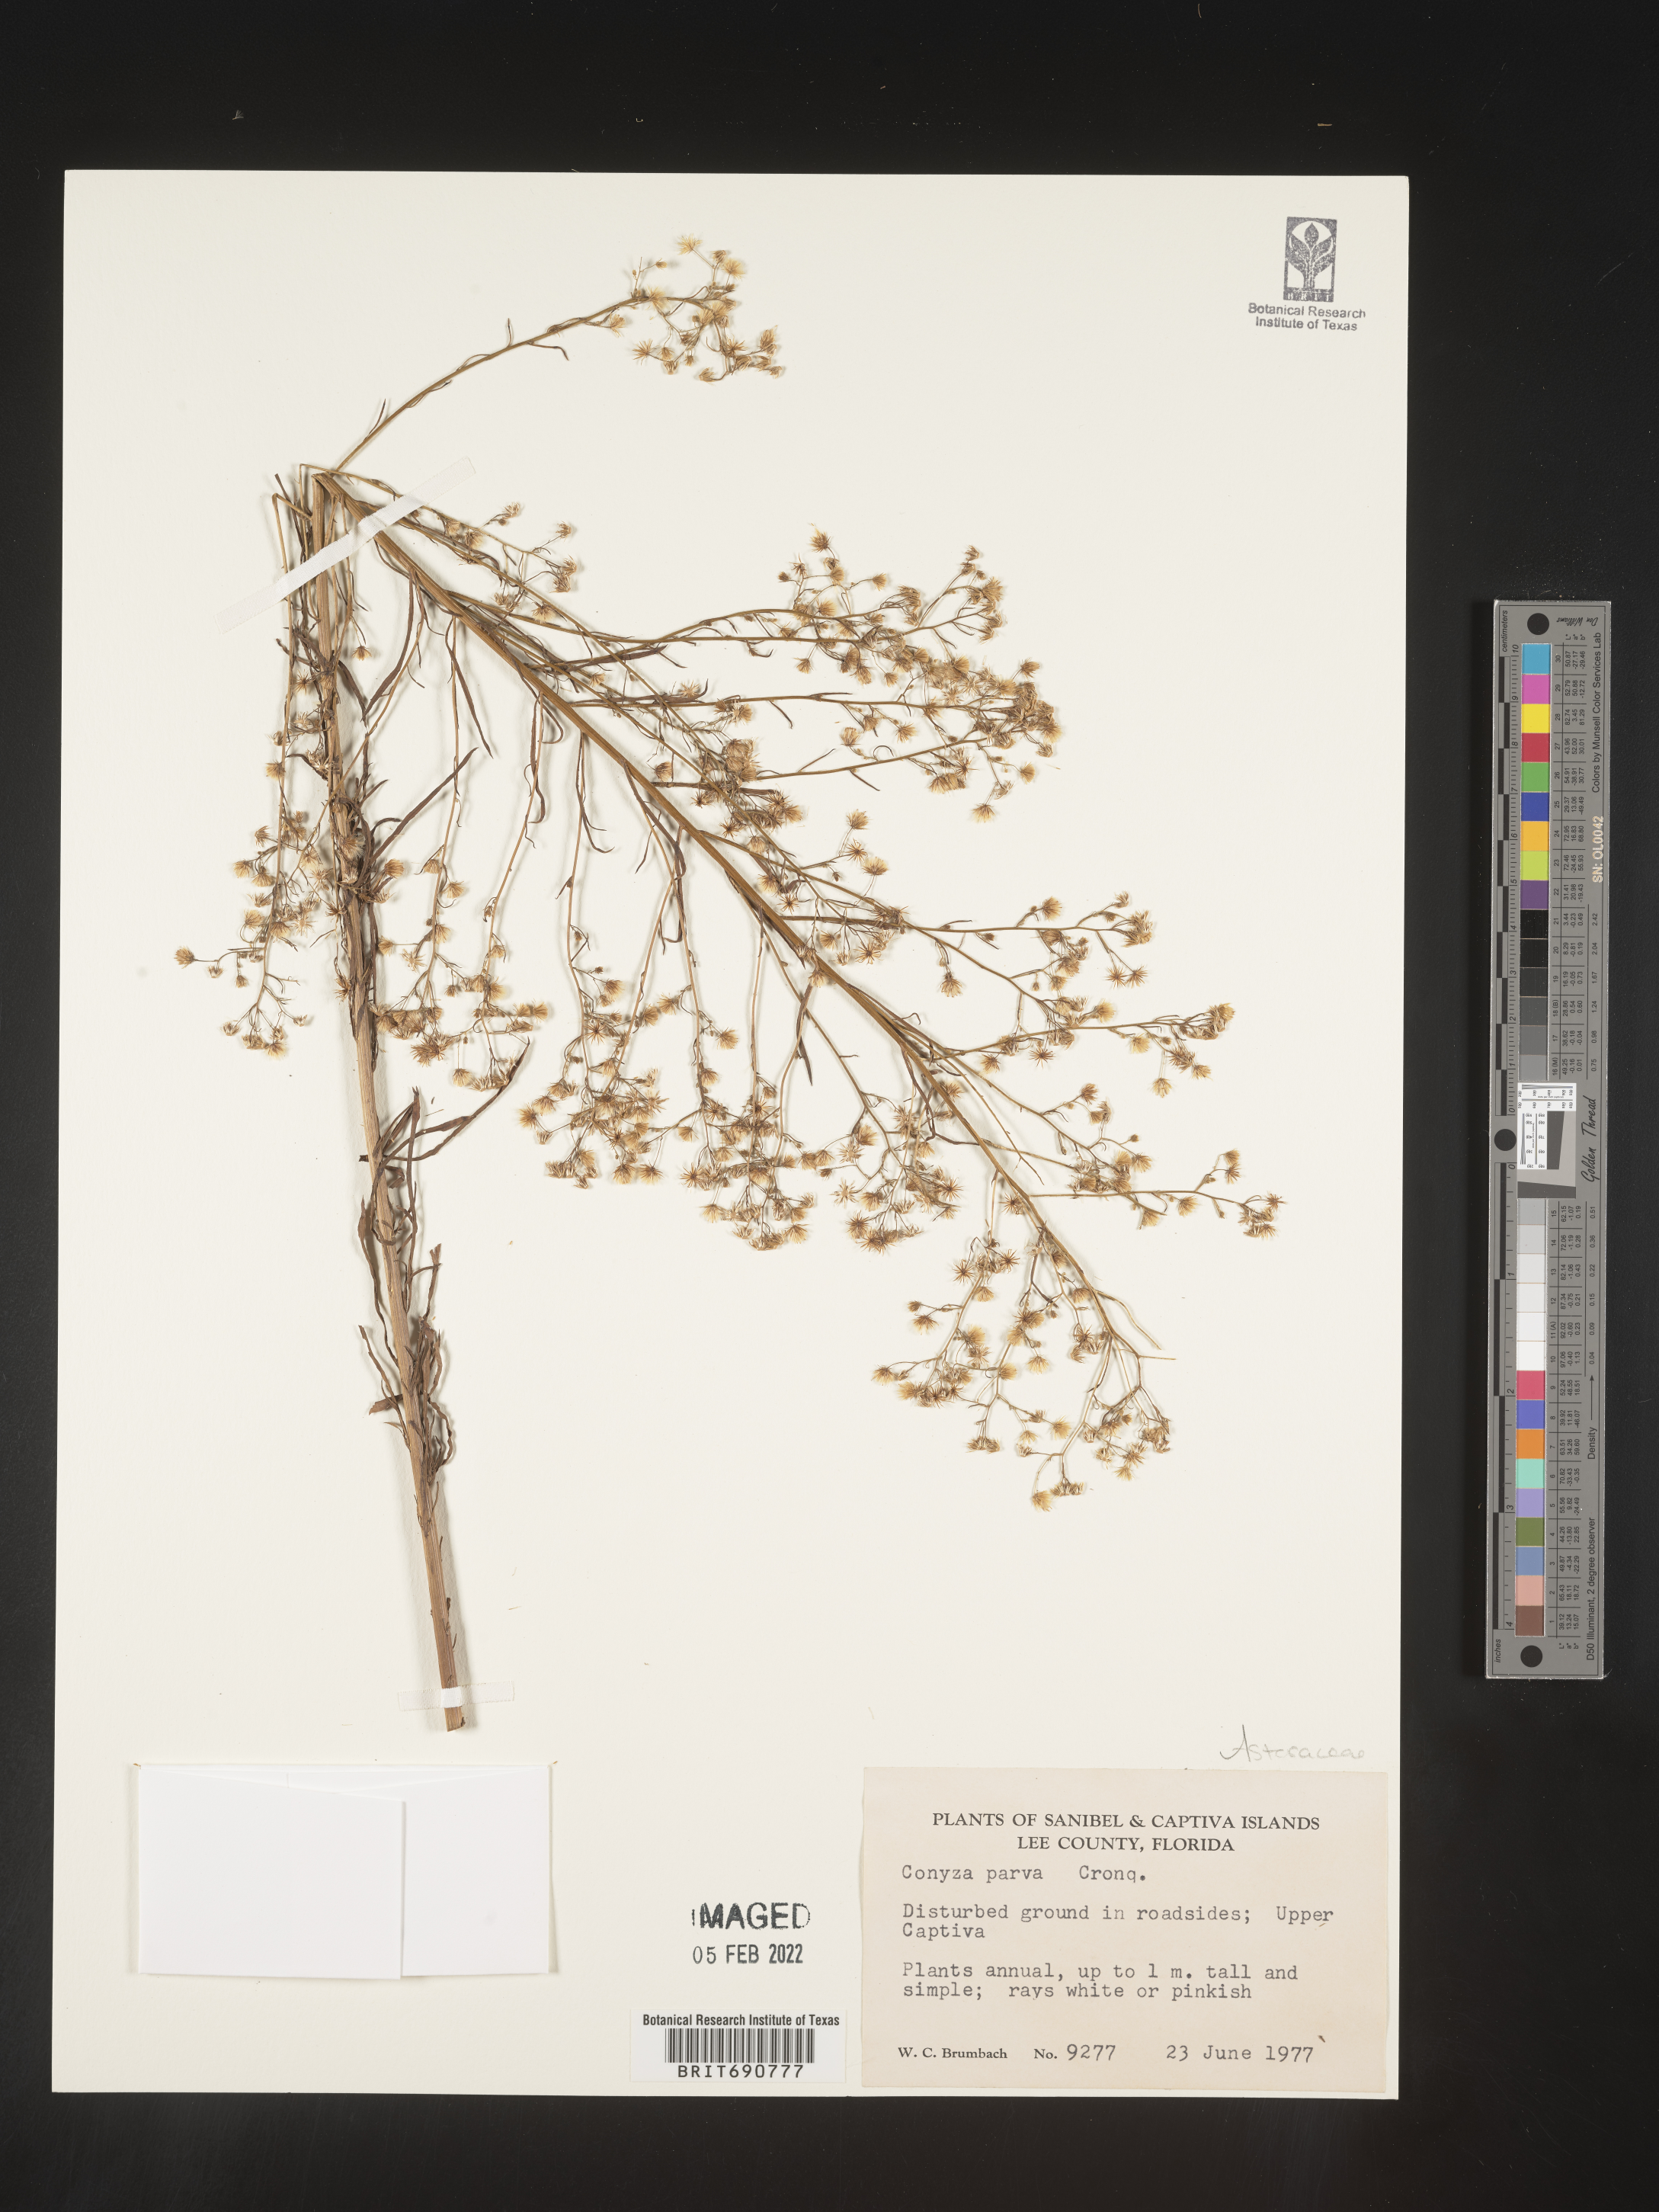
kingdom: Plantae
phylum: Tracheophyta
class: Magnoliopsida
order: Asterales
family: Asteraceae
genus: Erigeron
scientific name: Erigeron canadensis
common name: Canadian fleabane
